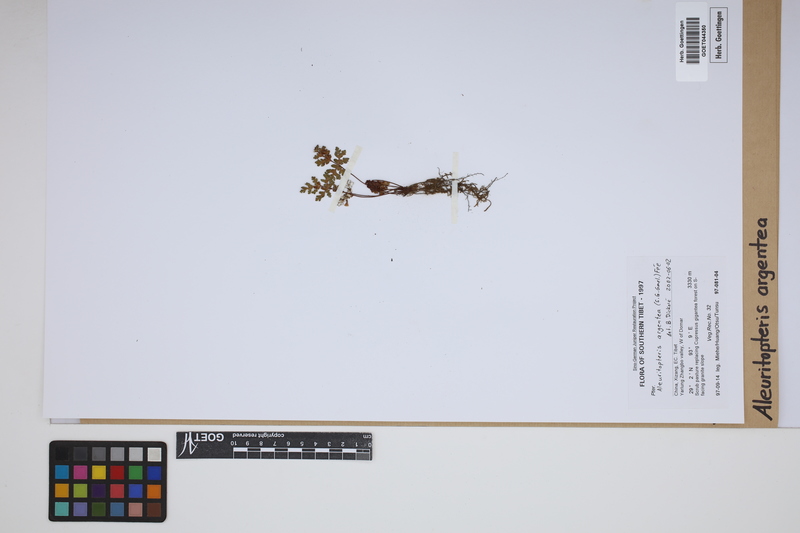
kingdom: Plantae
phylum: Tracheophyta
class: Polypodiopsida
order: Polypodiales
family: Pteridaceae
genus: Aleuritopteris
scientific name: Aleuritopteris argentea
